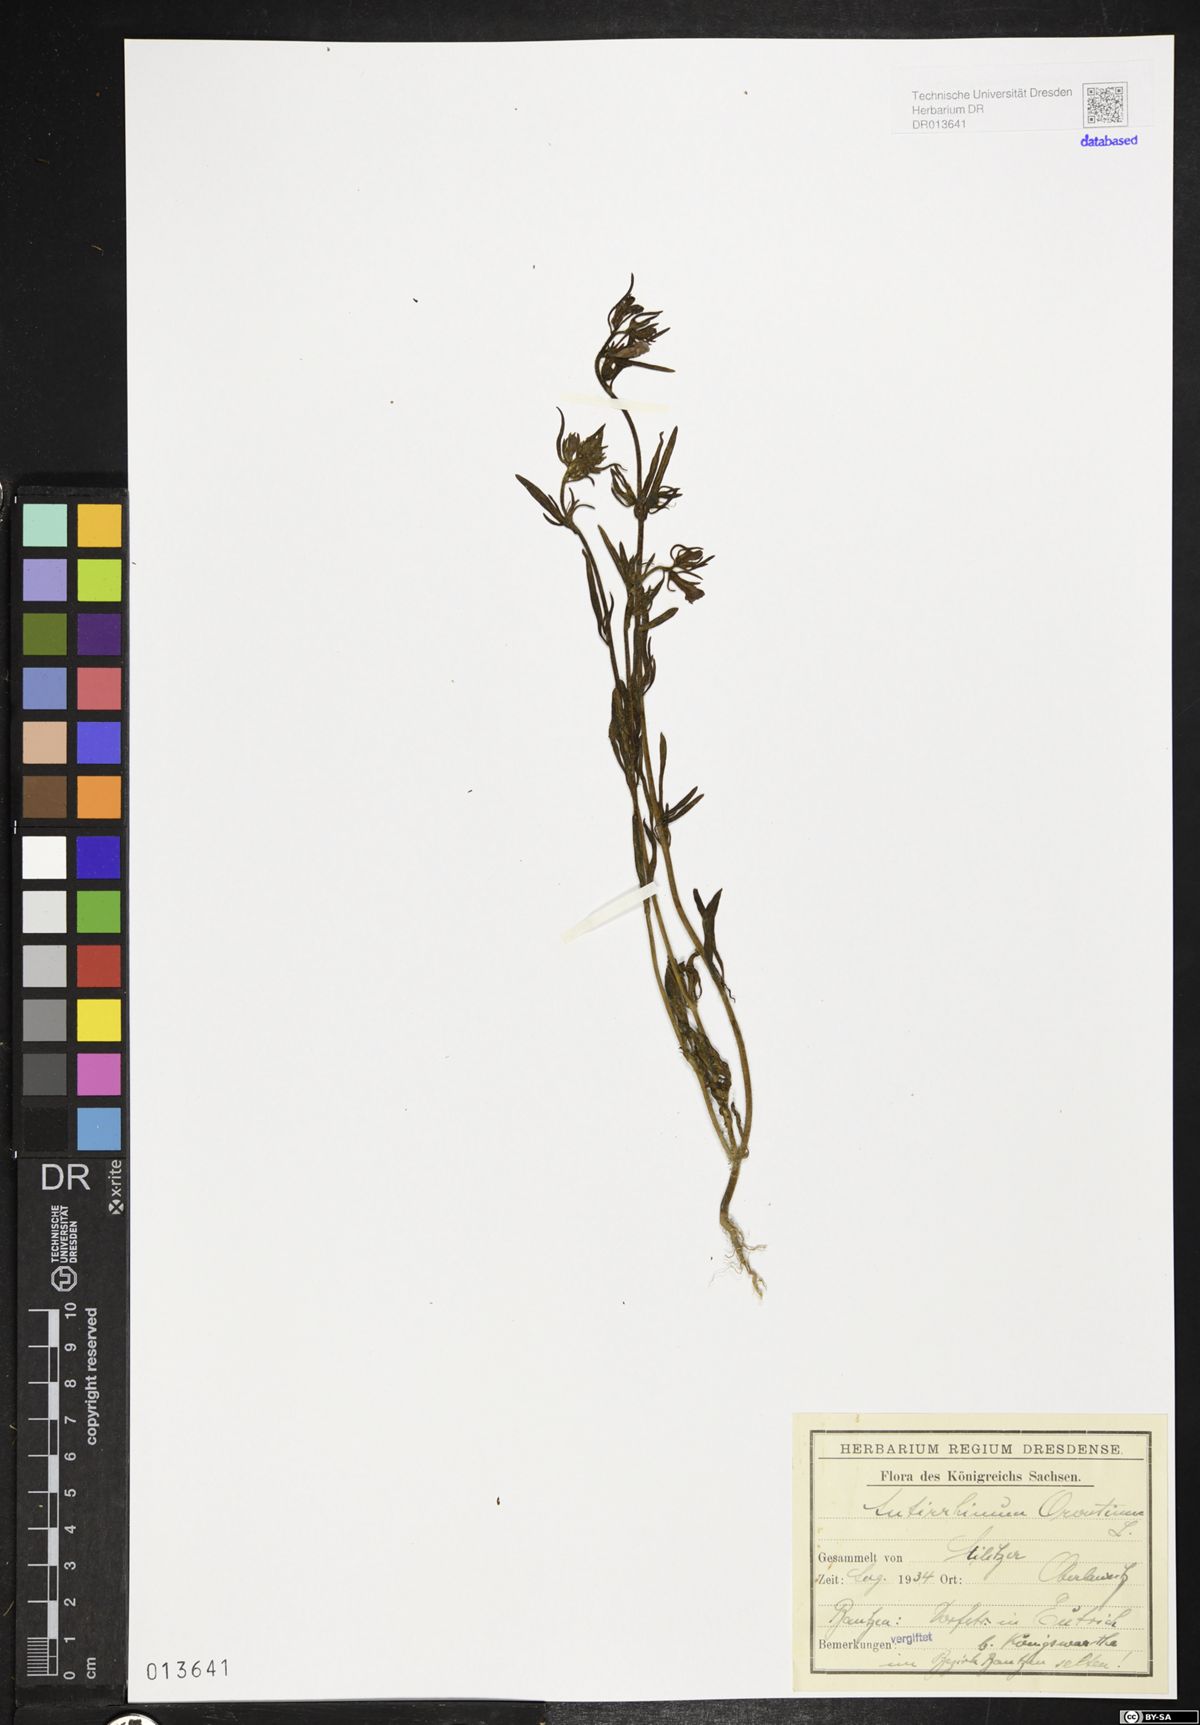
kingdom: Plantae
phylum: Tracheophyta
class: Magnoliopsida
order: Lamiales
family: Plantaginaceae
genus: Misopates
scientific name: Misopates orontium
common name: Weasel's-snout
